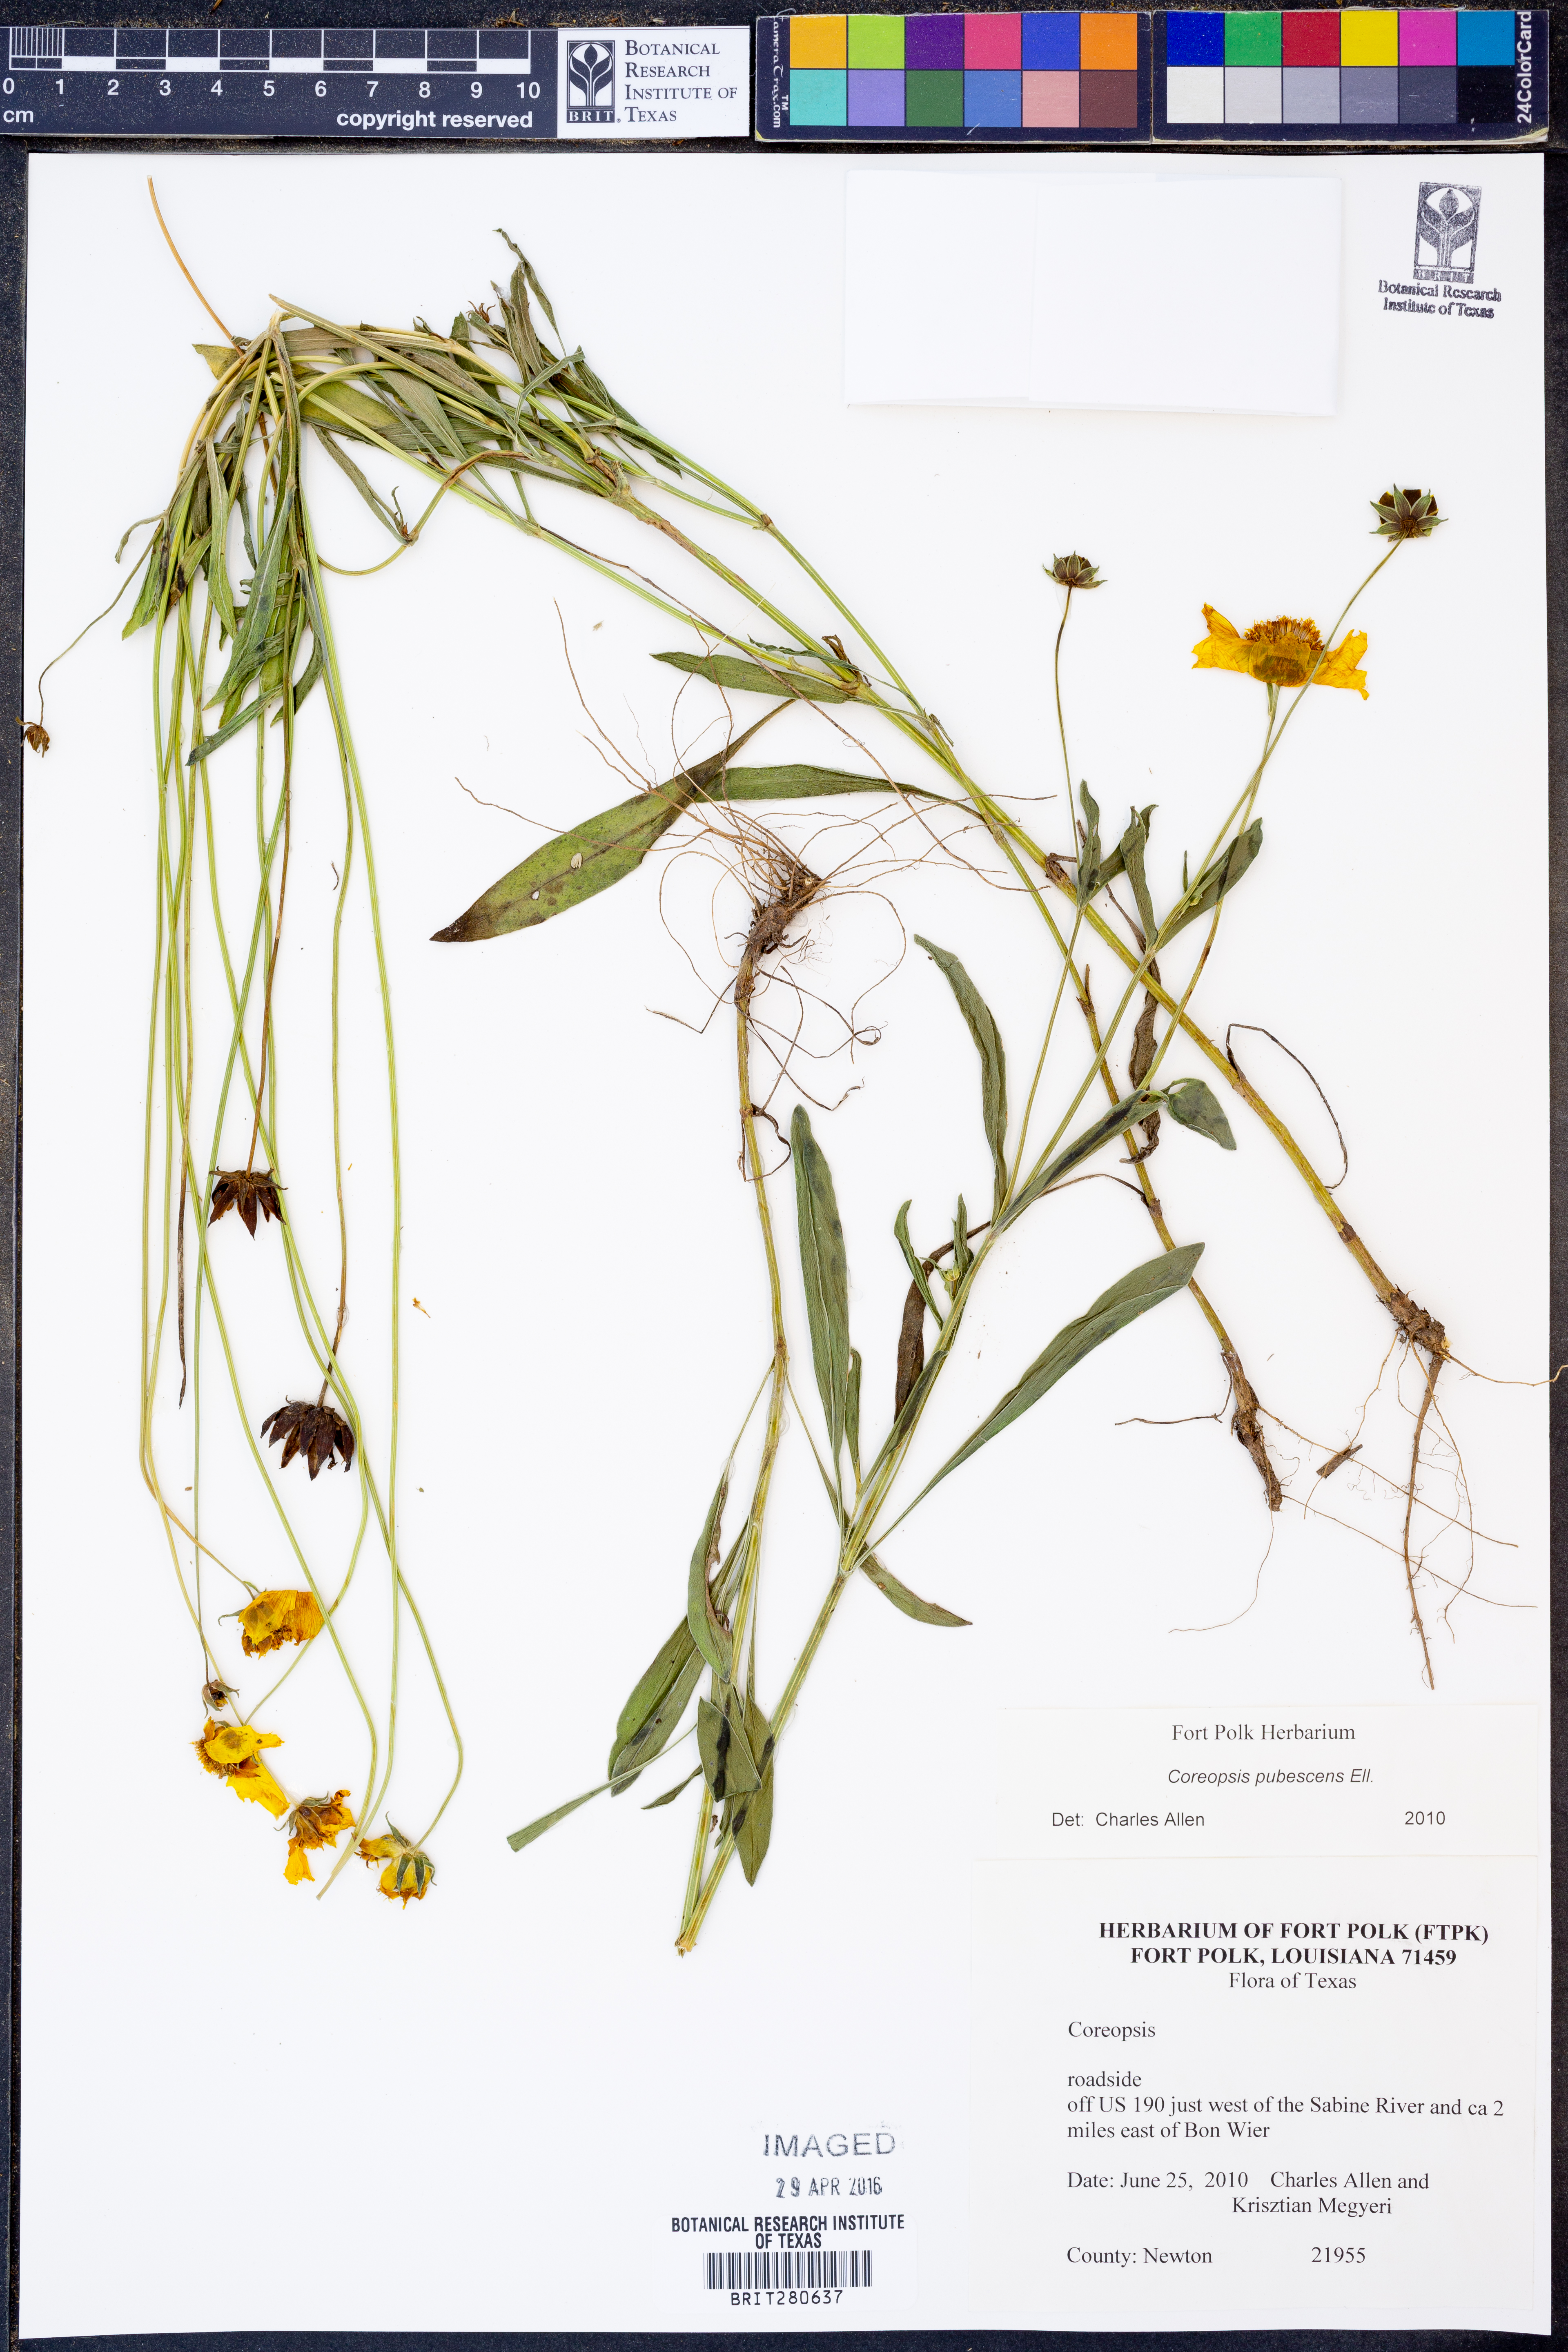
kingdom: Plantae
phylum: Tracheophyta
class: Magnoliopsida
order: Asterales
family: Asteraceae
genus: Coreopsis
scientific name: Coreopsis pubescens
